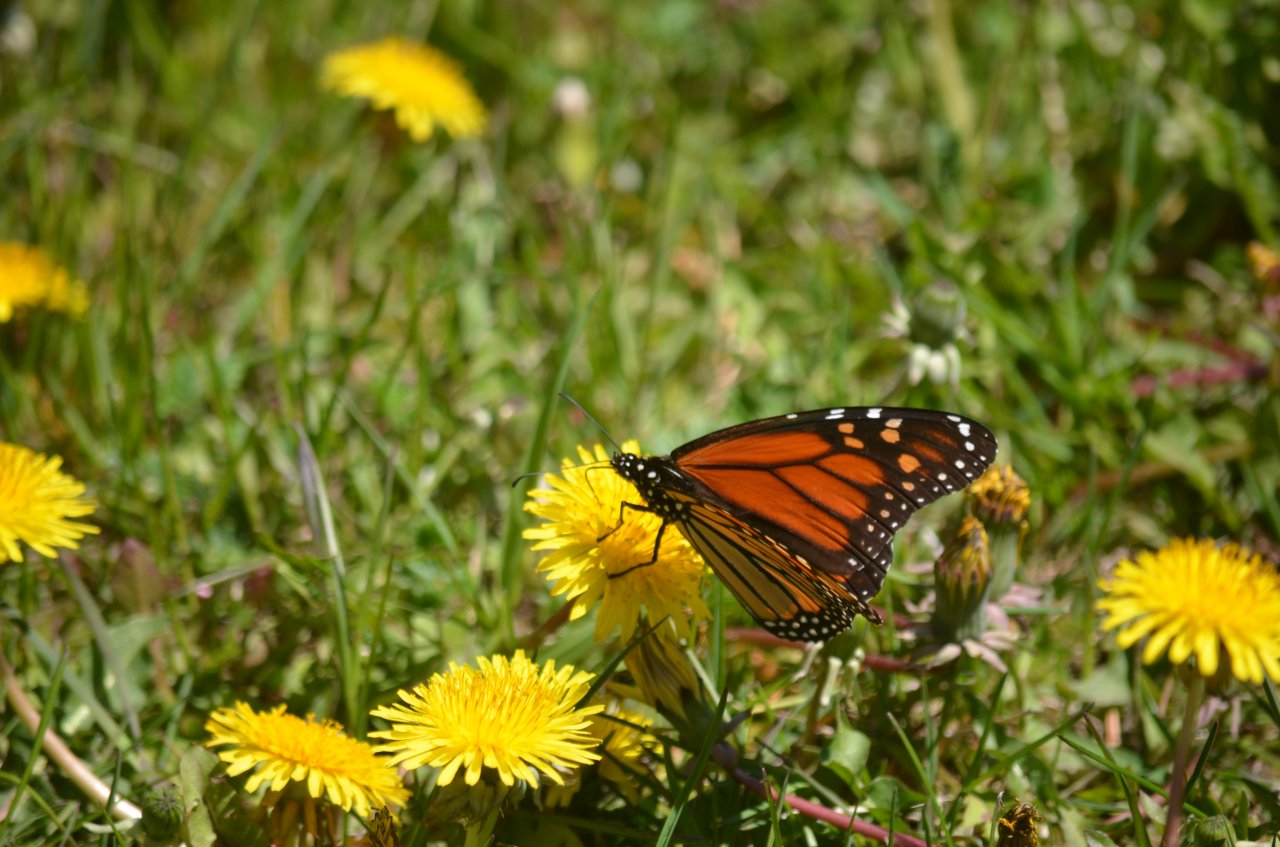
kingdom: Animalia
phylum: Arthropoda
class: Insecta
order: Lepidoptera
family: Nymphalidae
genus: Danaus
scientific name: Danaus plexippus
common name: Monarch
